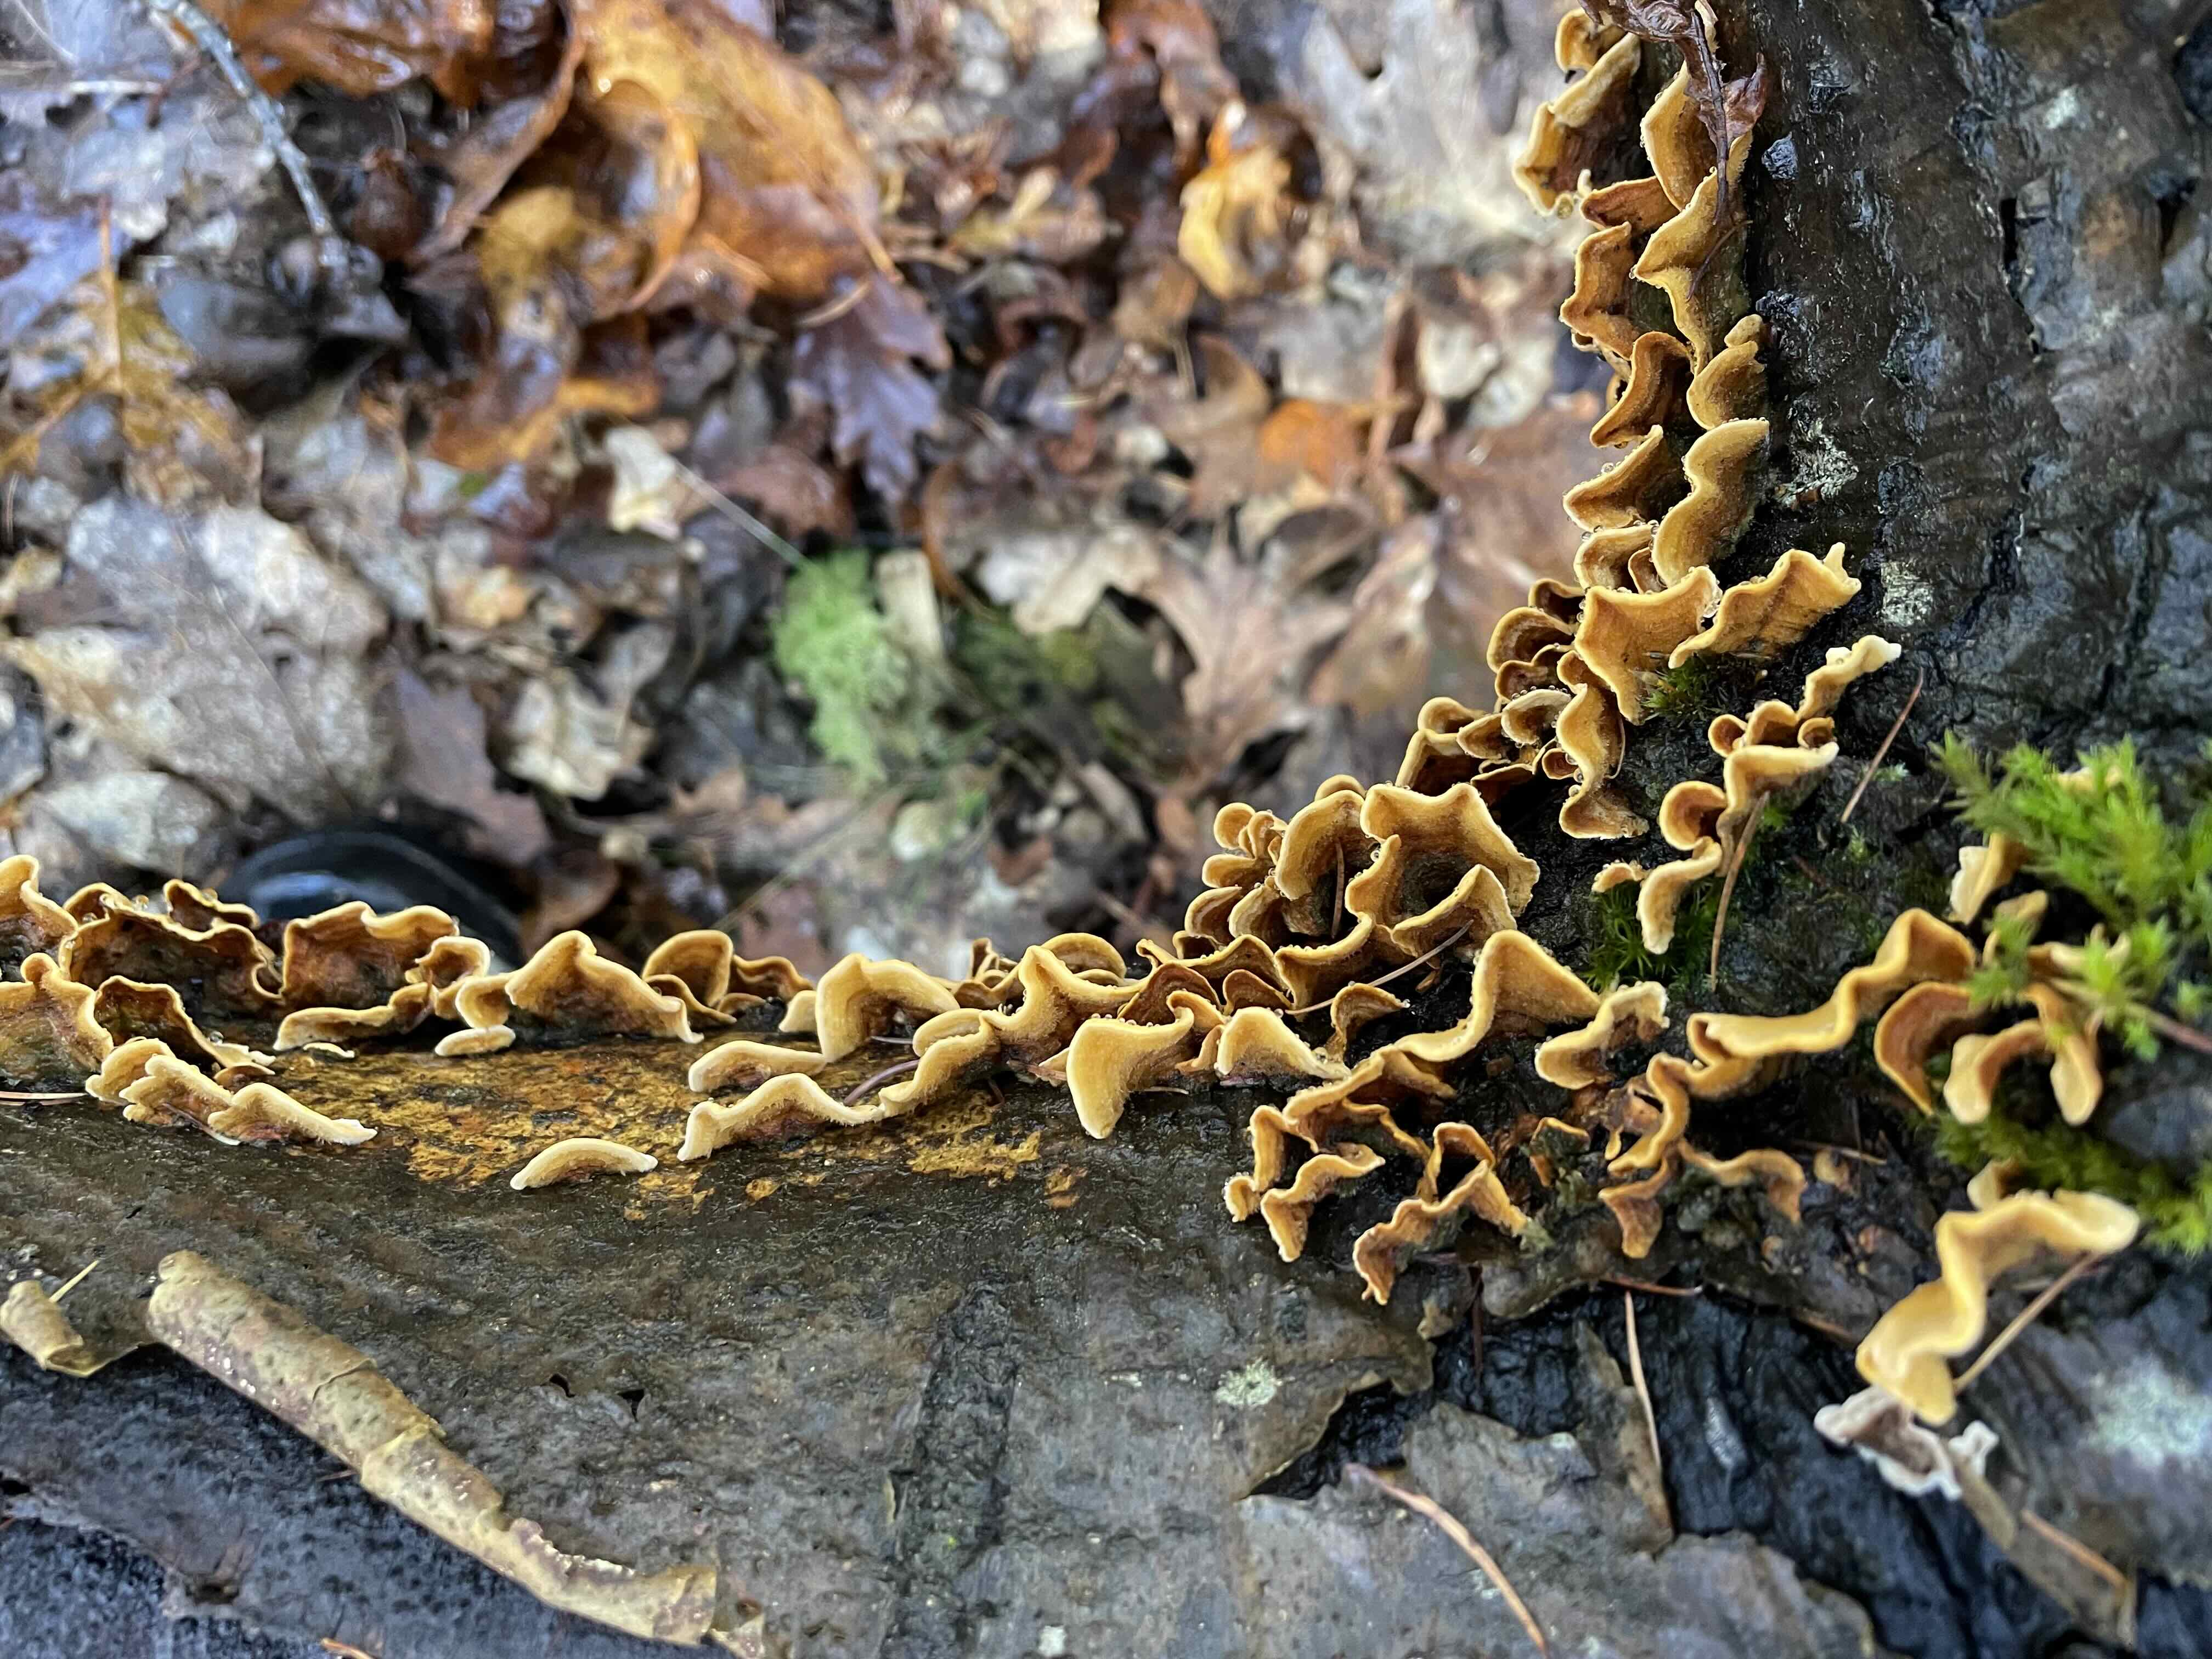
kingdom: Fungi
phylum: Basidiomycota
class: Agaricomycetes
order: Russulales
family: Stereaceae
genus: Stereum
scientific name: Stereum hirsutum
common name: håret lædersvamp
